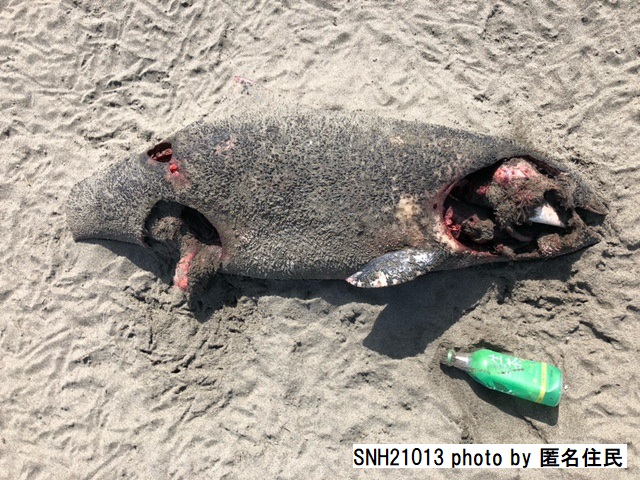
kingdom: Animalia
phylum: Chordata
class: Mammalia
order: Cetacea
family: Phocoenidae
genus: Phocoena
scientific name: Phocoena phocoena
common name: Harbour porpoise
